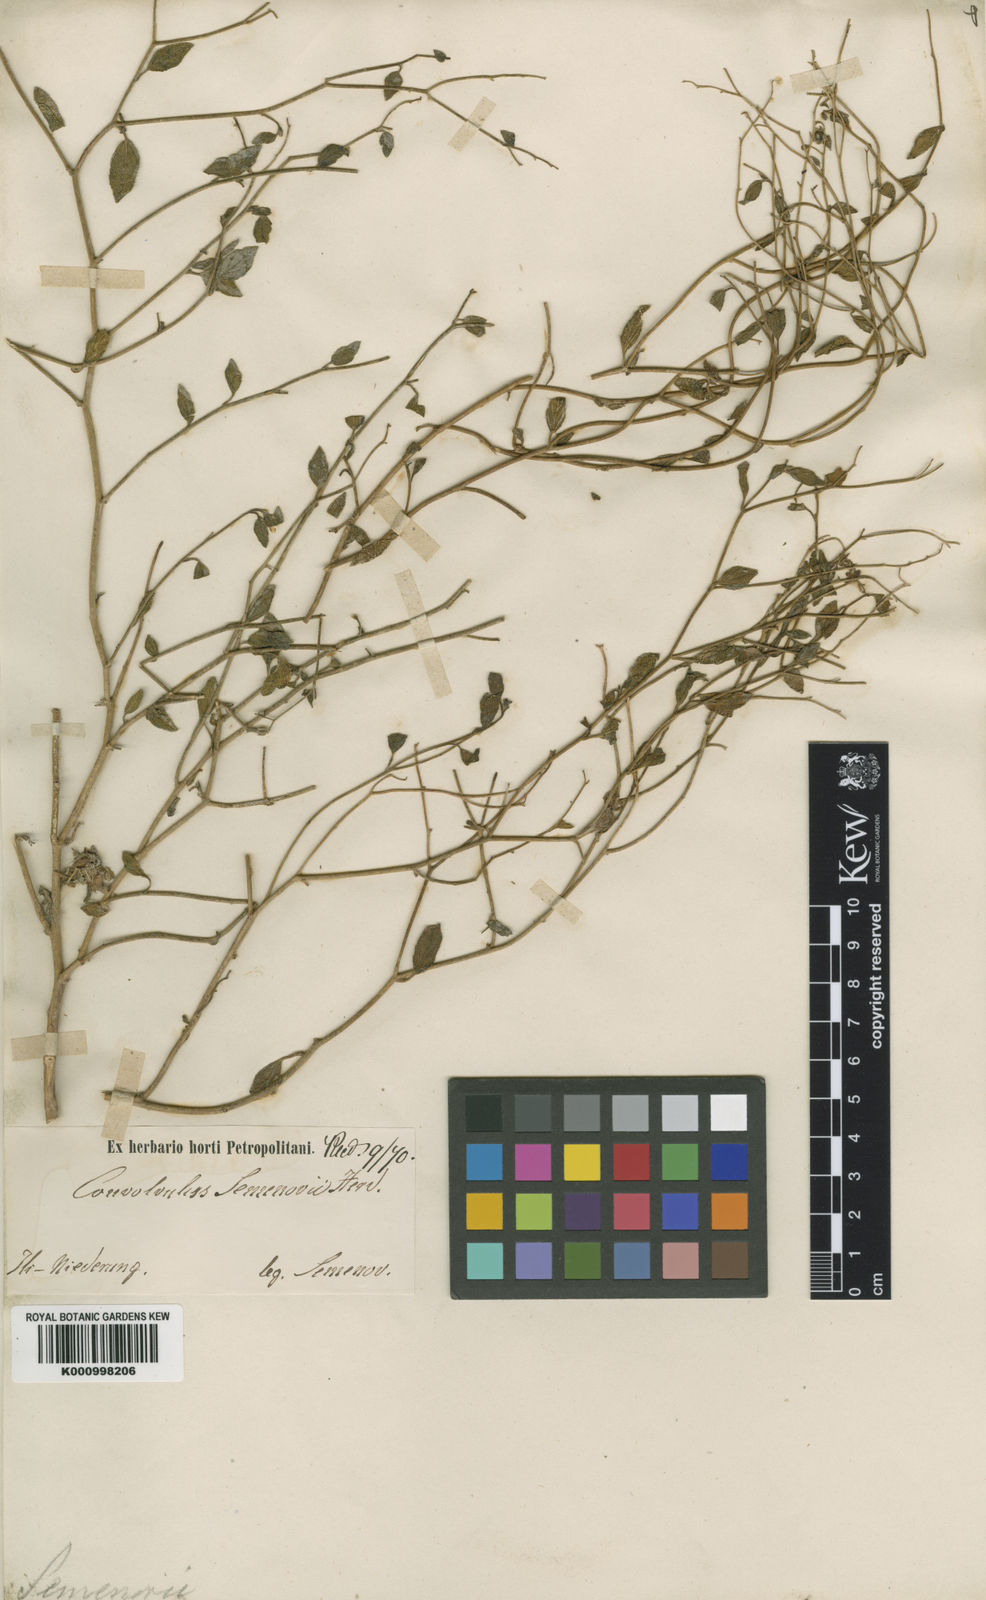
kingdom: Plantae
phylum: Tracheophyta
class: Magnoliopsida
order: Boraginales
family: Heliotropiaceae
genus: Heliotropium
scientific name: Heliotropium
